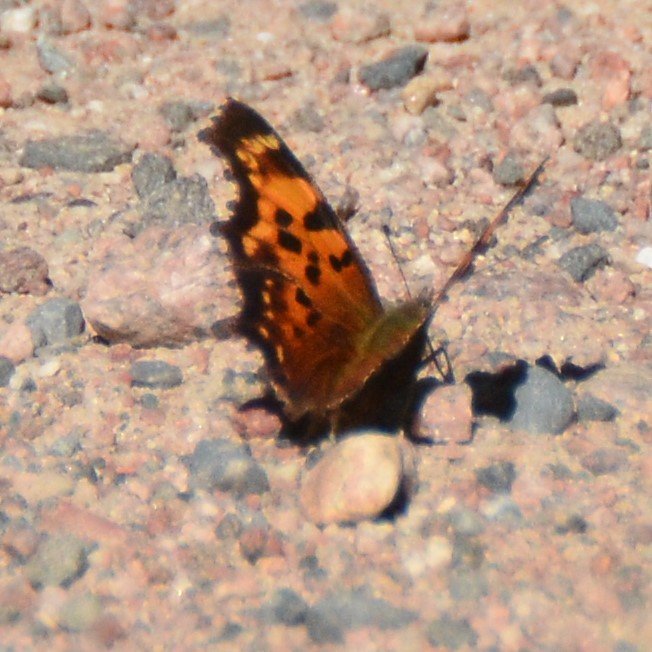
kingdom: Animalia
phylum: Arthropoda
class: Insecta
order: Lepidoptera
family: Nymphalidae
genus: Polygonia
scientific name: Polygonia faunus
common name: Green Comma
